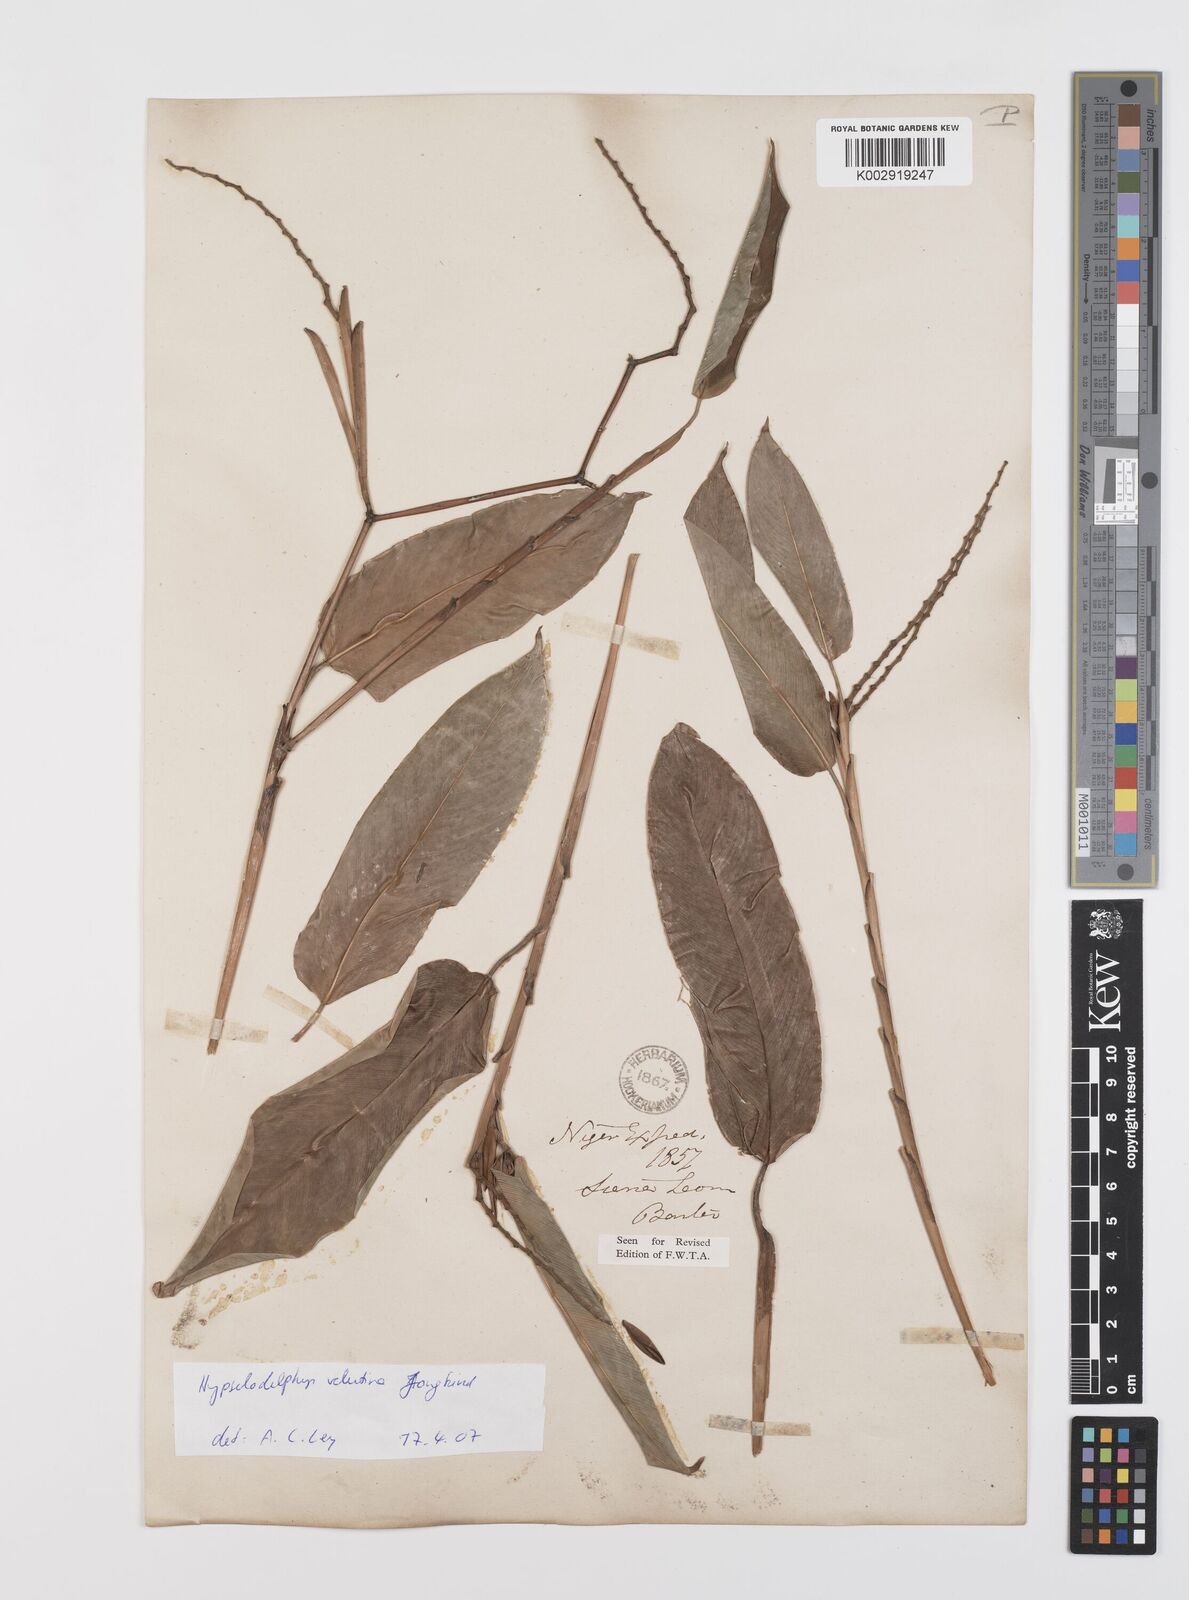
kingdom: Plantae
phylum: Tracheophyta
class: Liliopsida
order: Zingiberales
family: Marantaceae
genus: Hypselodelphys
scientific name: Hypselodelphys velutina
